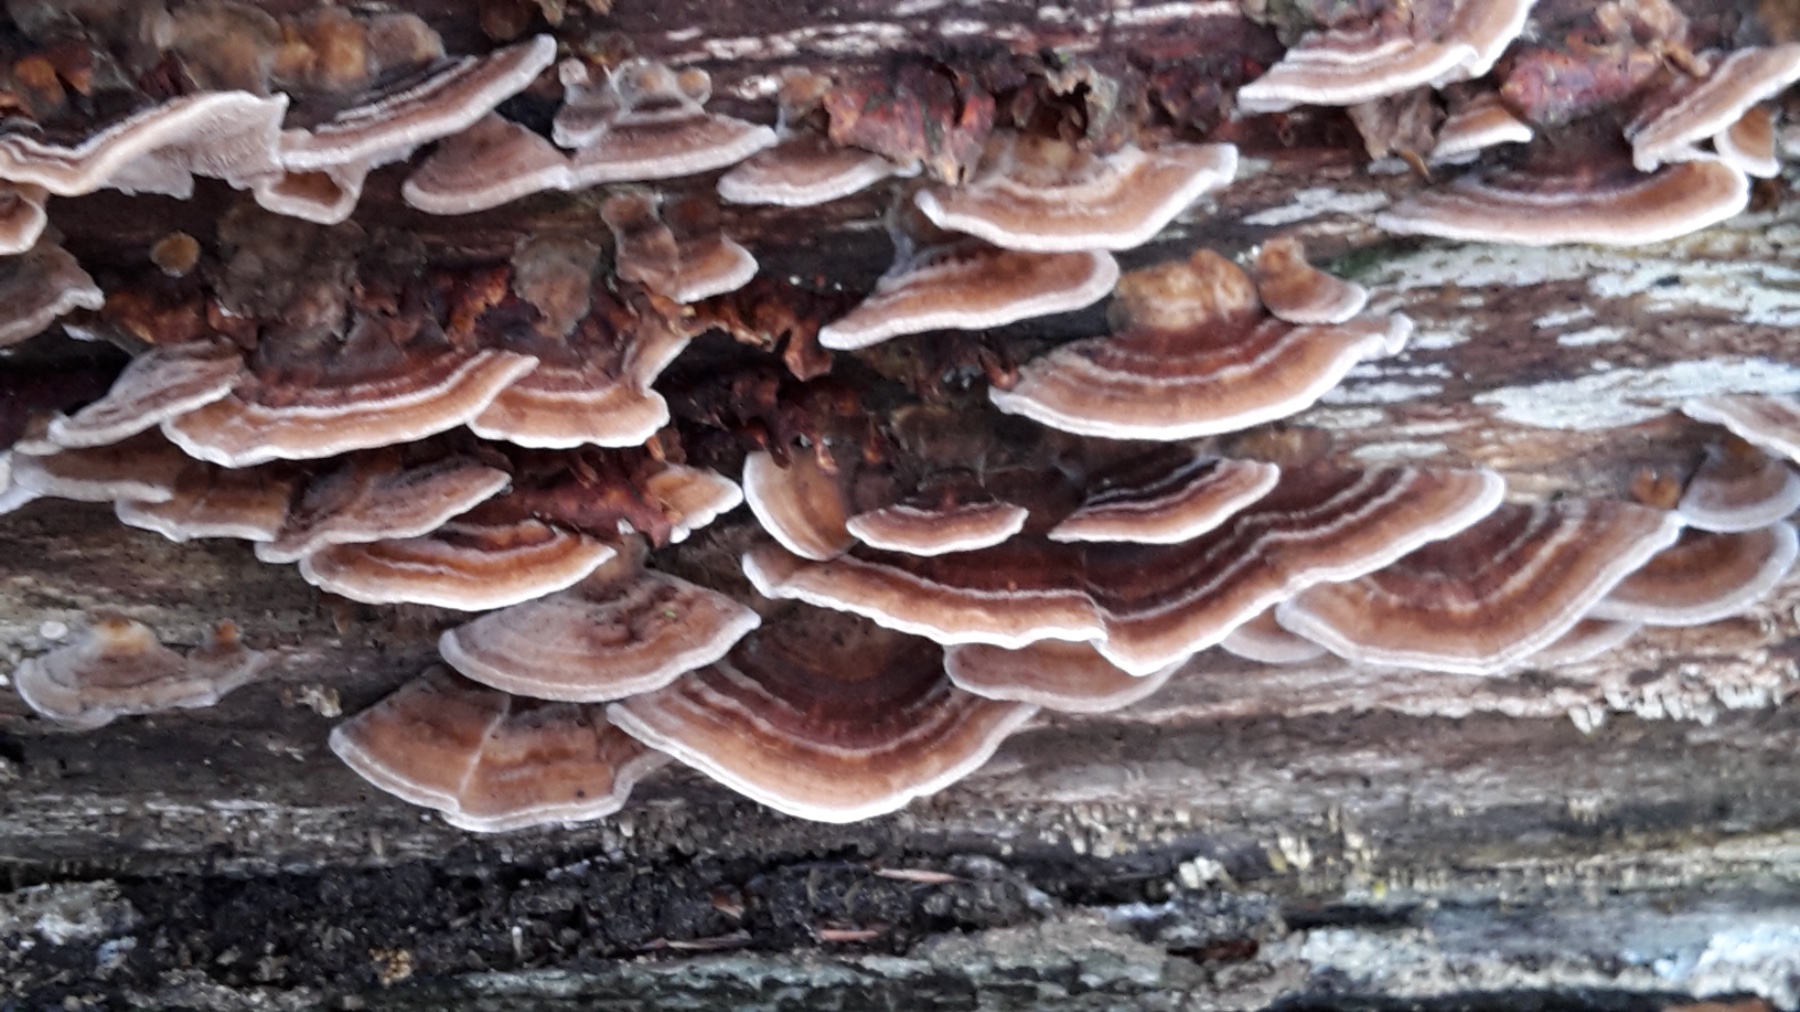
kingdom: Fungi
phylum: Basidiomycota
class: Agaricomycetes
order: Polyporales
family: Polyporaceae
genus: Trametes
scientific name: Trametes versicolor
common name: broget læderporesvamp
